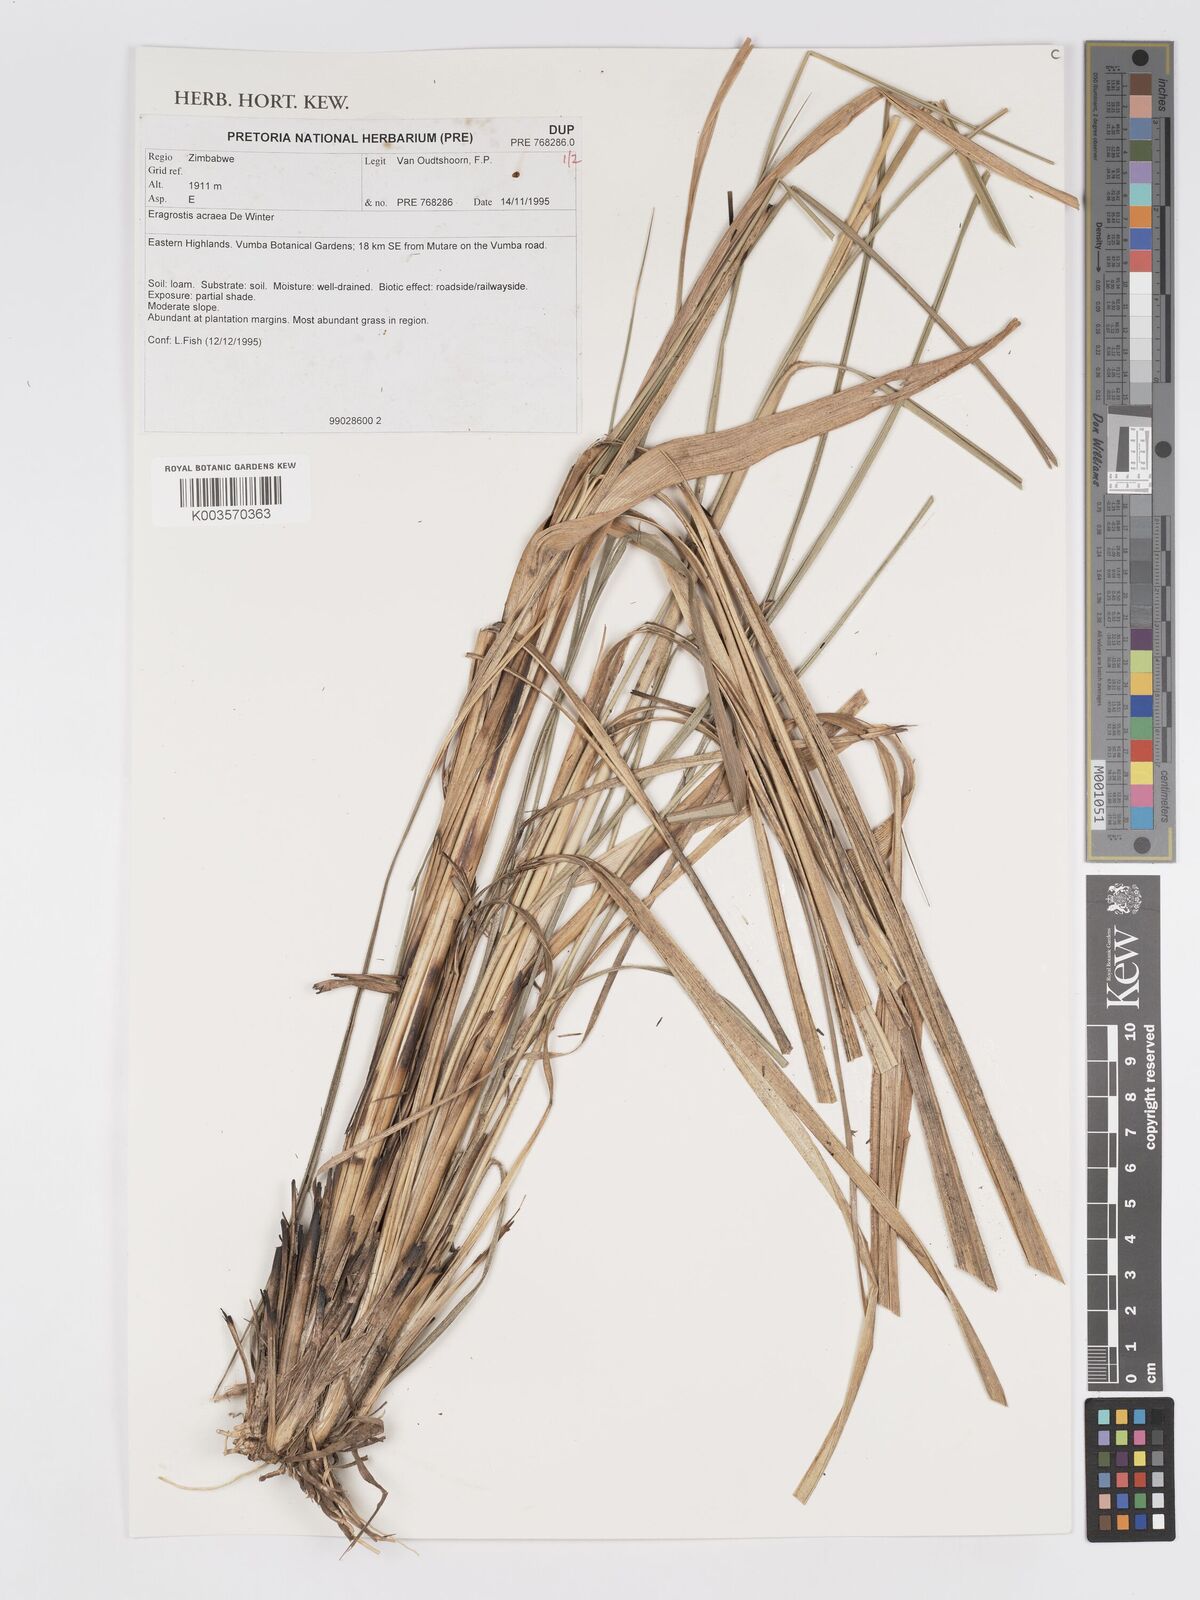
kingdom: Plantae
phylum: Tracheophyta
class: Liliopsida
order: Poales
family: Poaceae
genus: Eragrostis
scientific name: Eragrostis acraea
